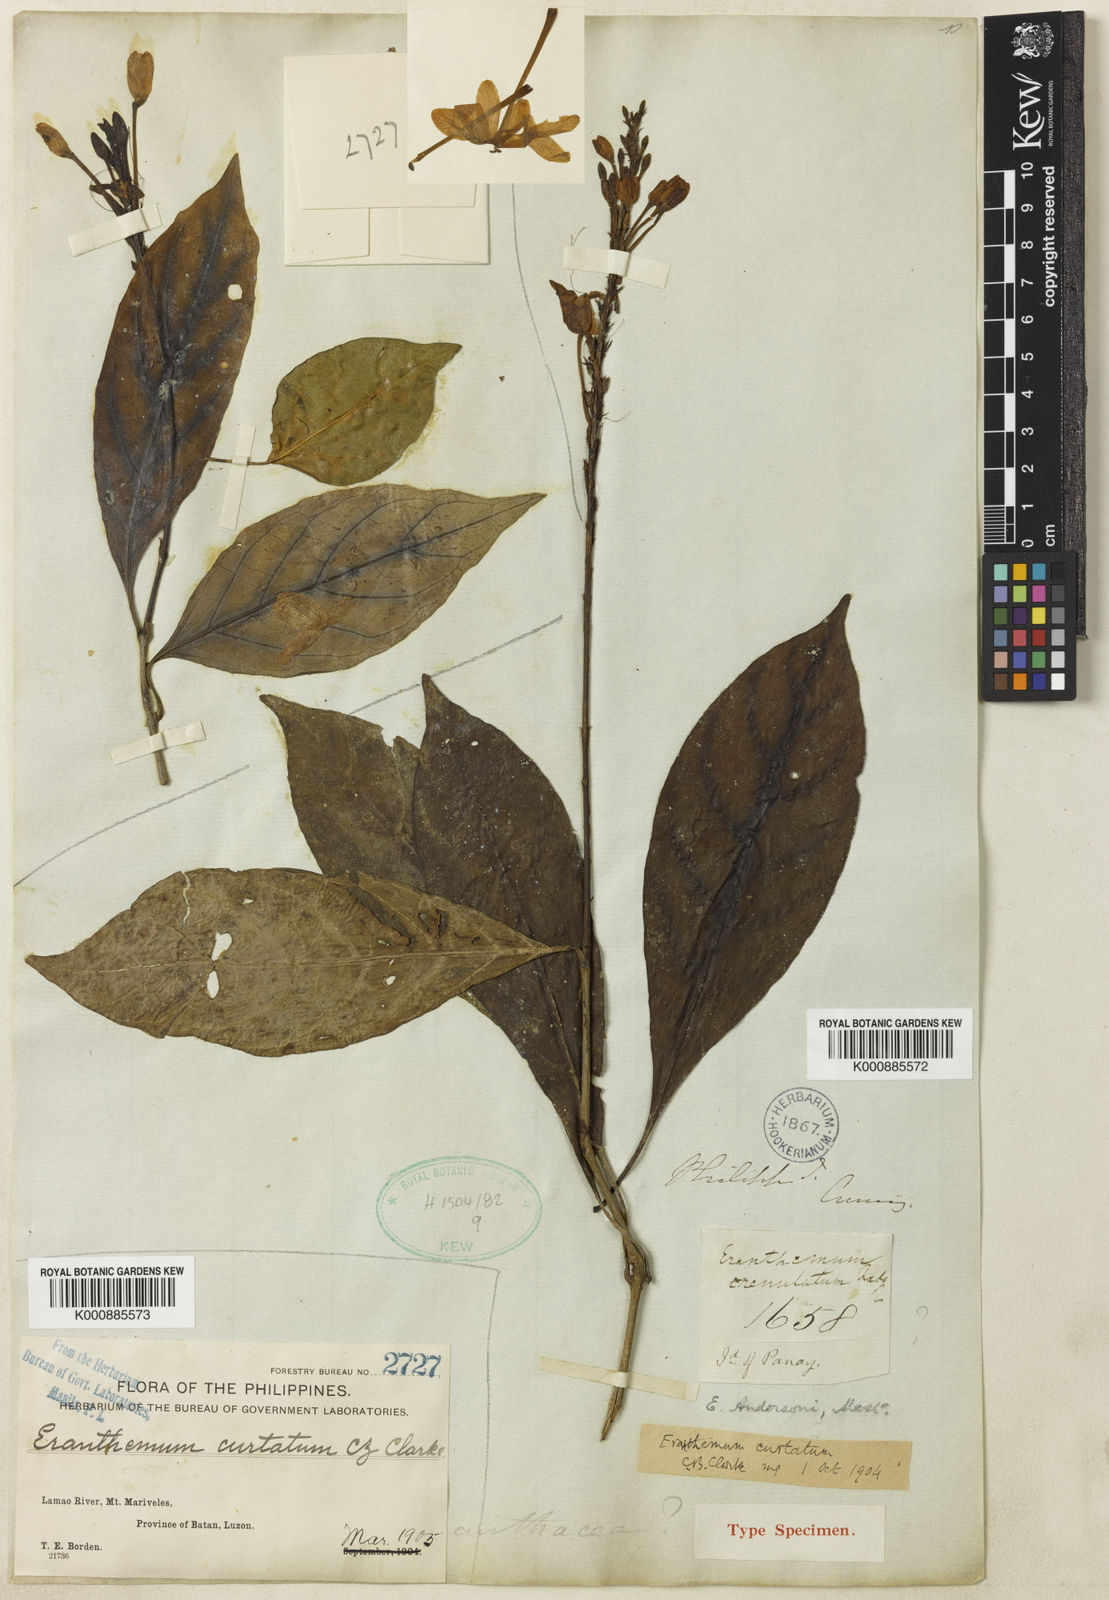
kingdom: Plantae
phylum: Tracheophyta
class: Magnoliopsida
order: Lamiales
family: Acanthaceae
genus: Pseuderanthemum
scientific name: Pseuderanthemum curtatum
